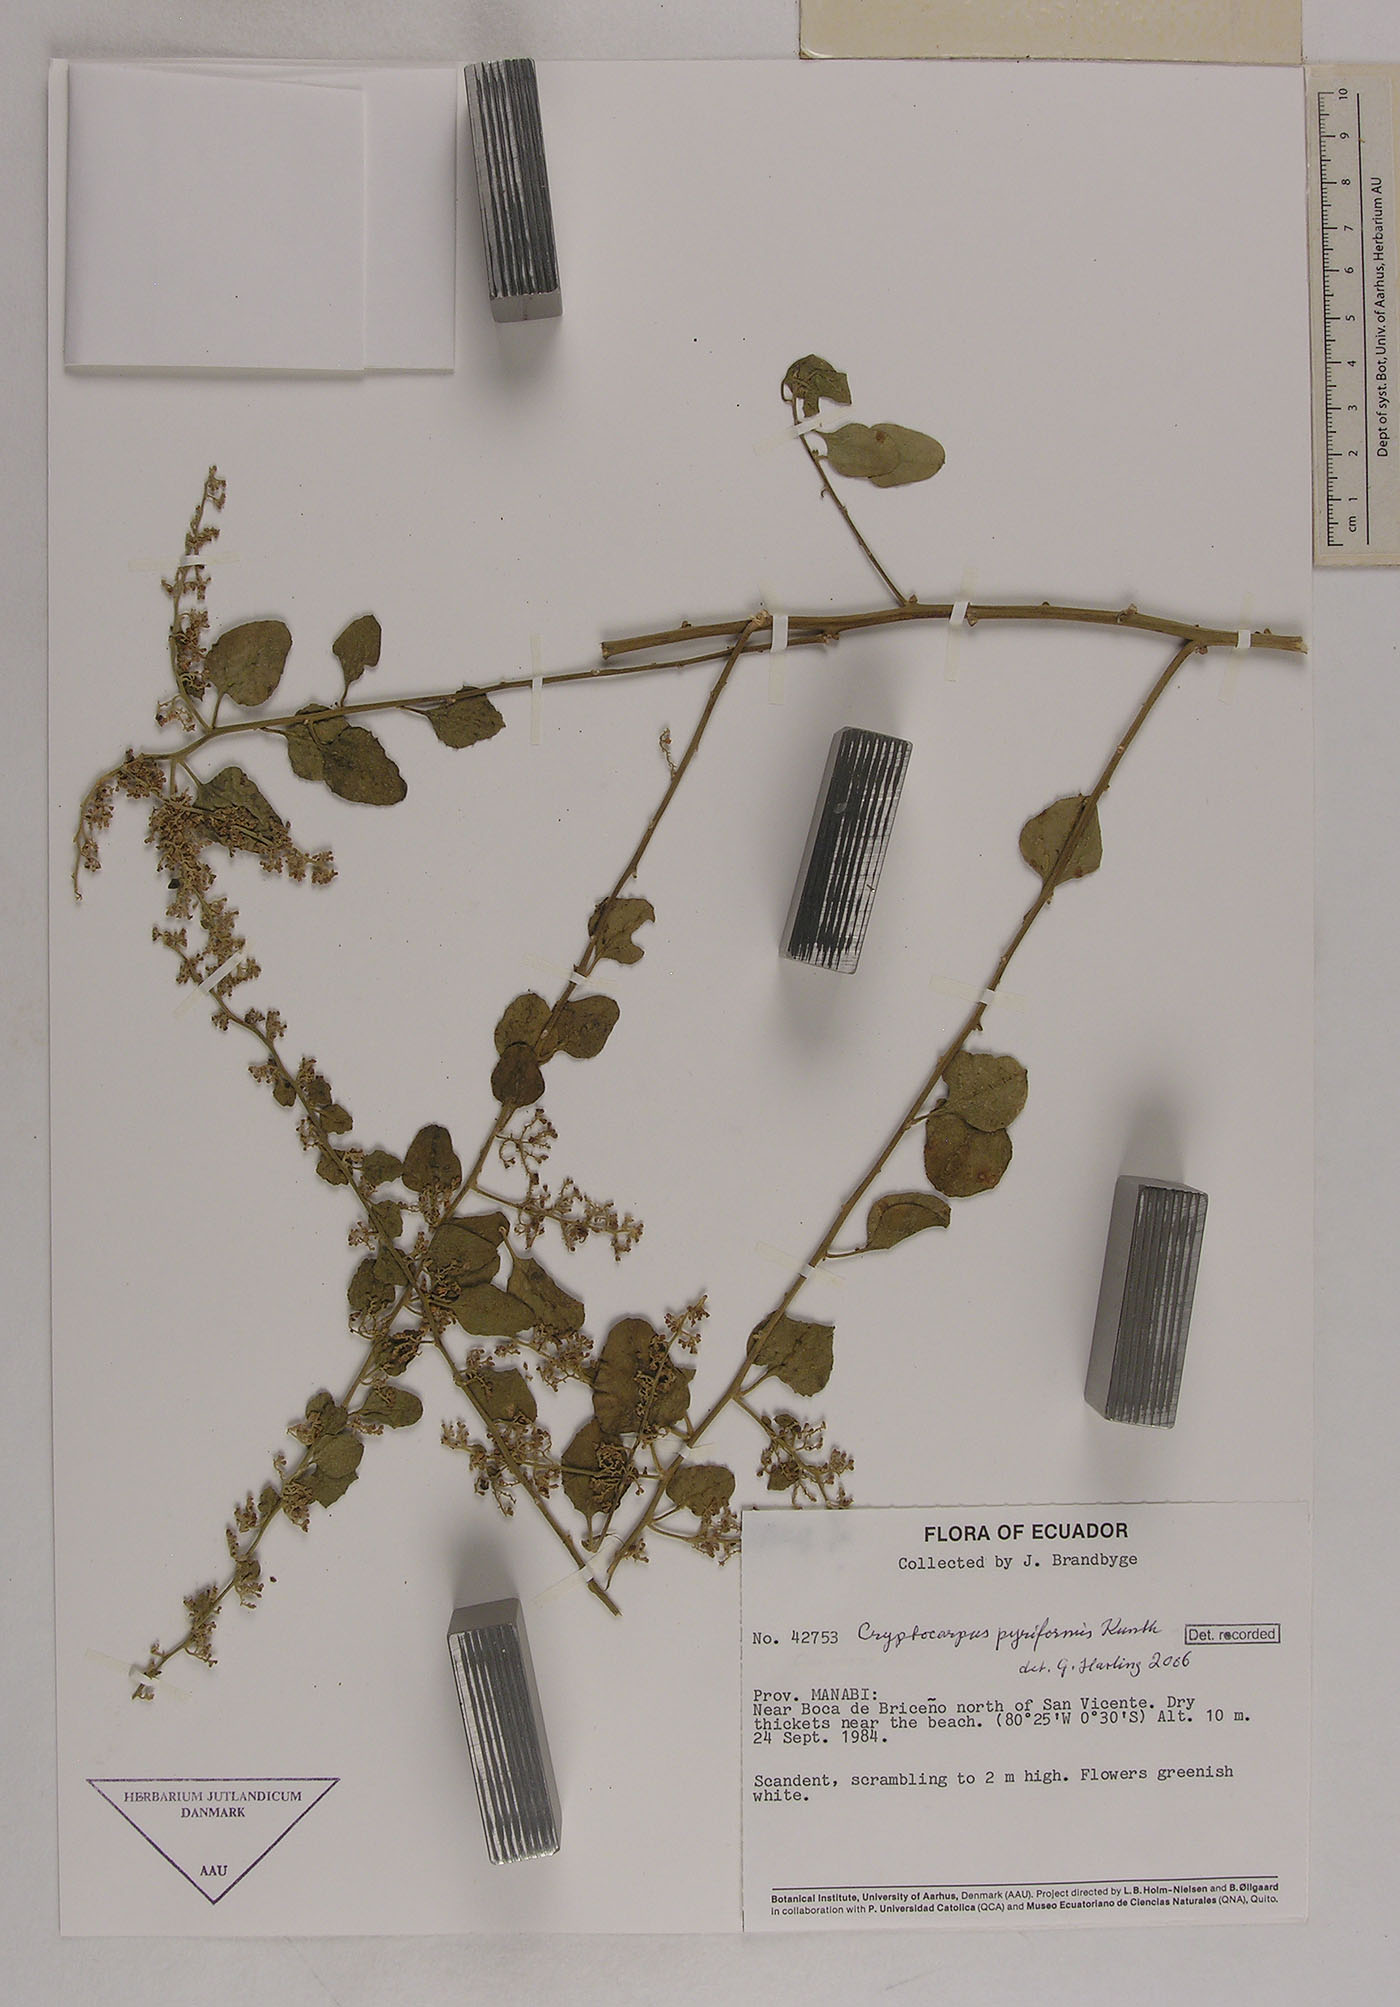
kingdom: Plantae
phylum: Tracheophyta
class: Magnoliopsida
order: Caryophyllales
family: Nyctaginaceae
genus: Cryptocarpus
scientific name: Cryptocarpus pyriformis
